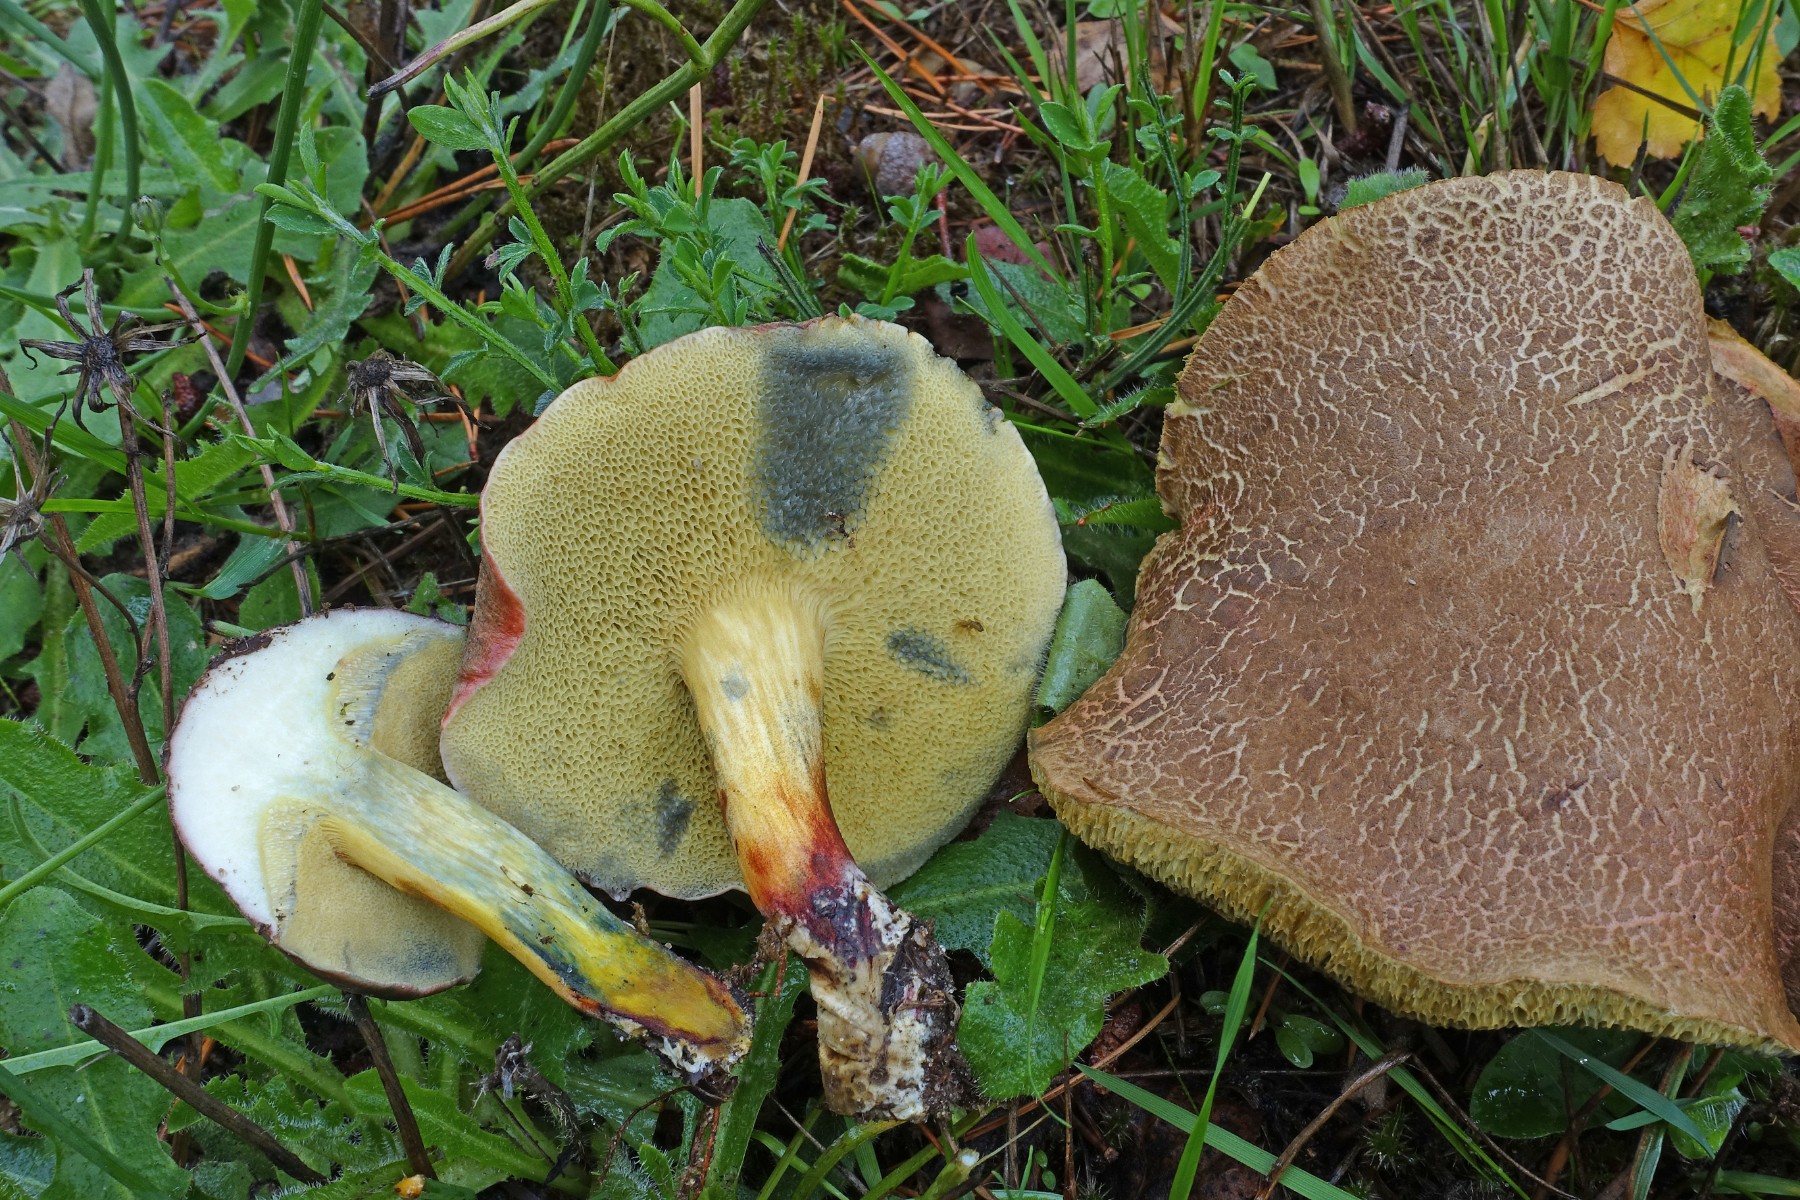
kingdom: Fungi
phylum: Basidiomycota
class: Agaricomycetes
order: Boletales
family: Boletaceae
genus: Xerocomellus
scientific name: Xerocomellus cisalpinus
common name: finsprukken rørhat
